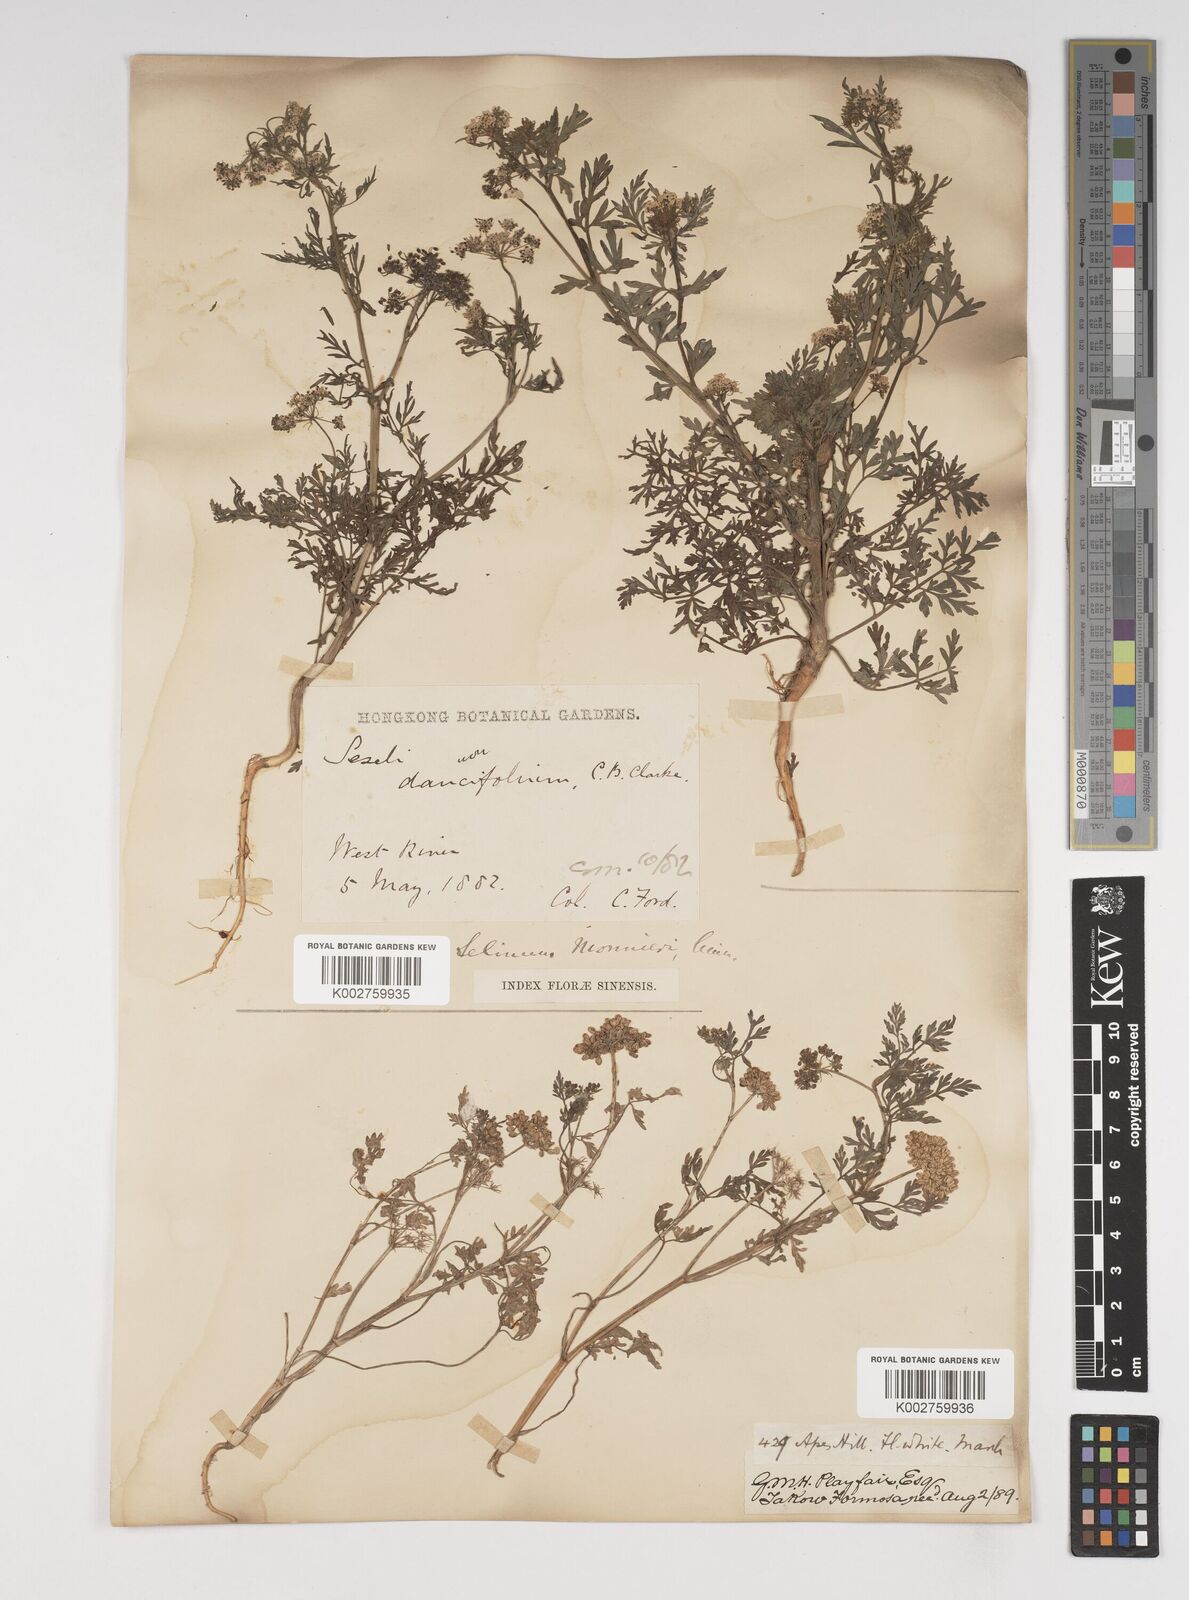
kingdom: Plantae
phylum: Tracheophyta
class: Magnoliopsida
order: Apiales
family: Apiaceae
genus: Cnidium
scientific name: Cnidium monnieri
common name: Monnier's snowparsley
